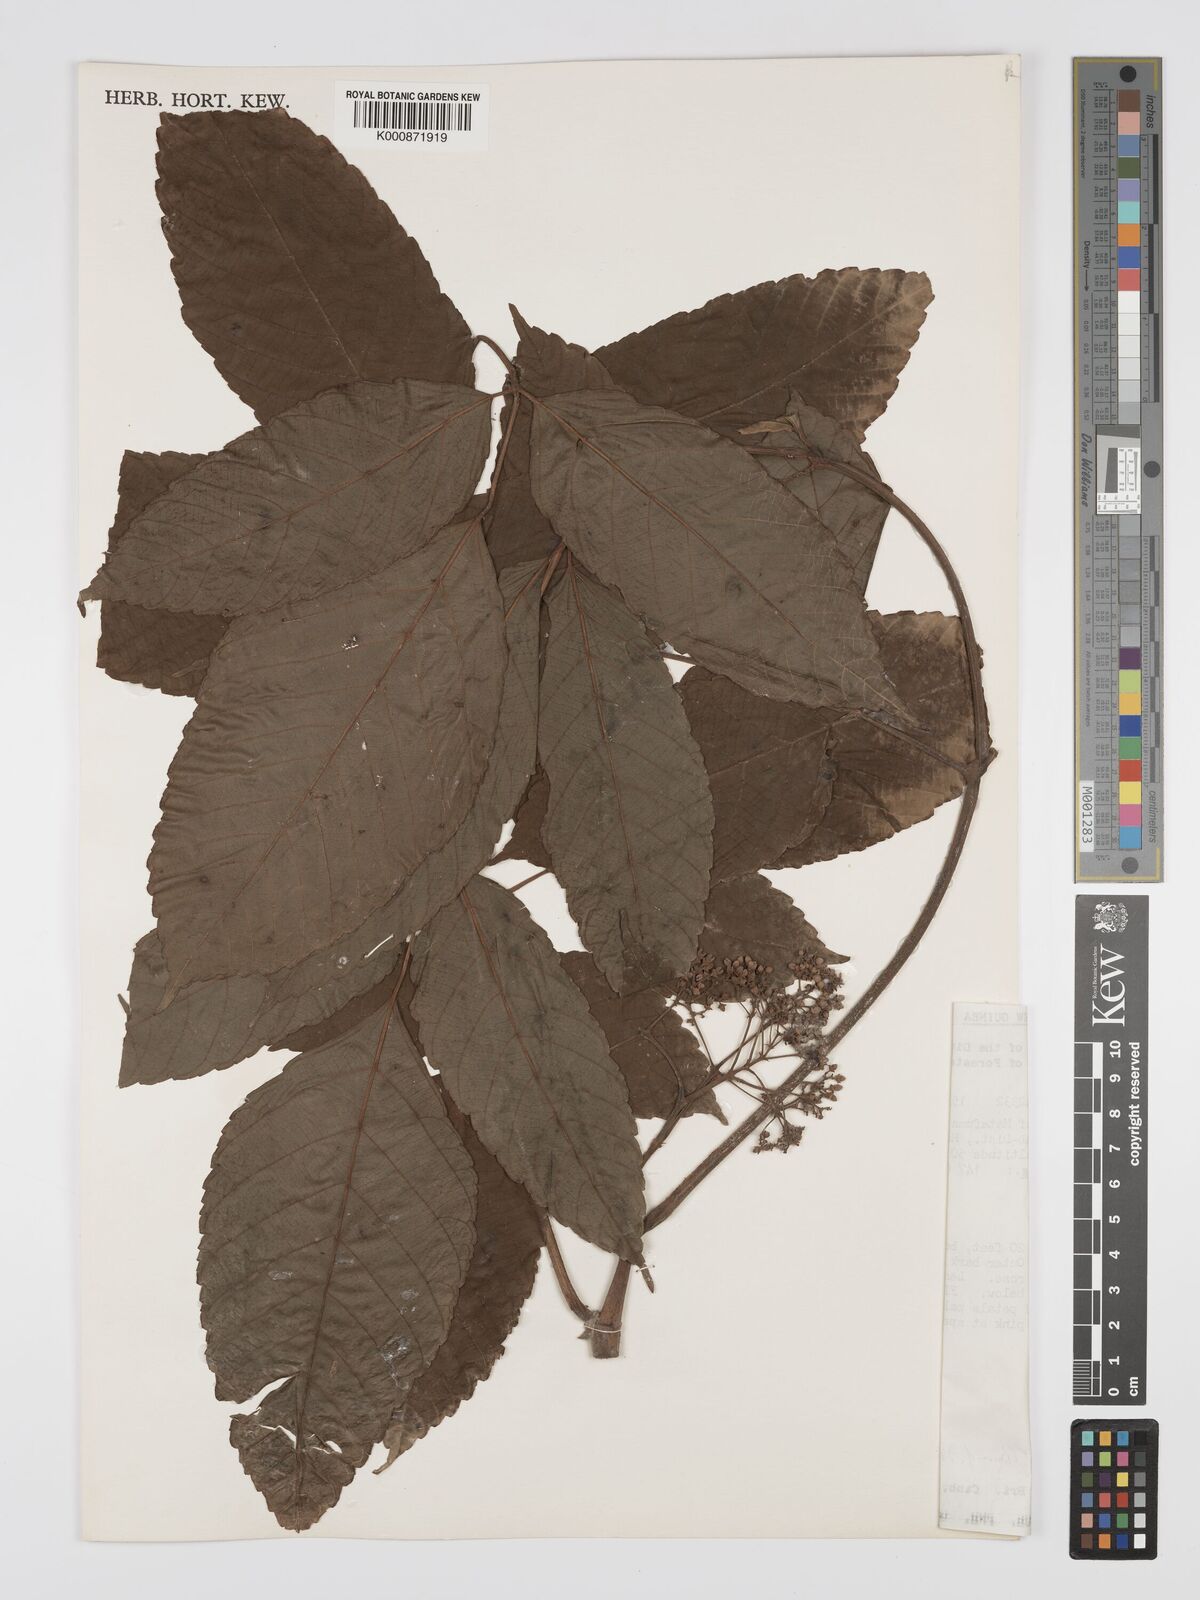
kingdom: Plantae
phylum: Tracheophyta
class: Magnoliopsida
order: Vitales
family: Vitaceae
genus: Leea
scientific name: Leea indica
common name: Bandicoot-berry
